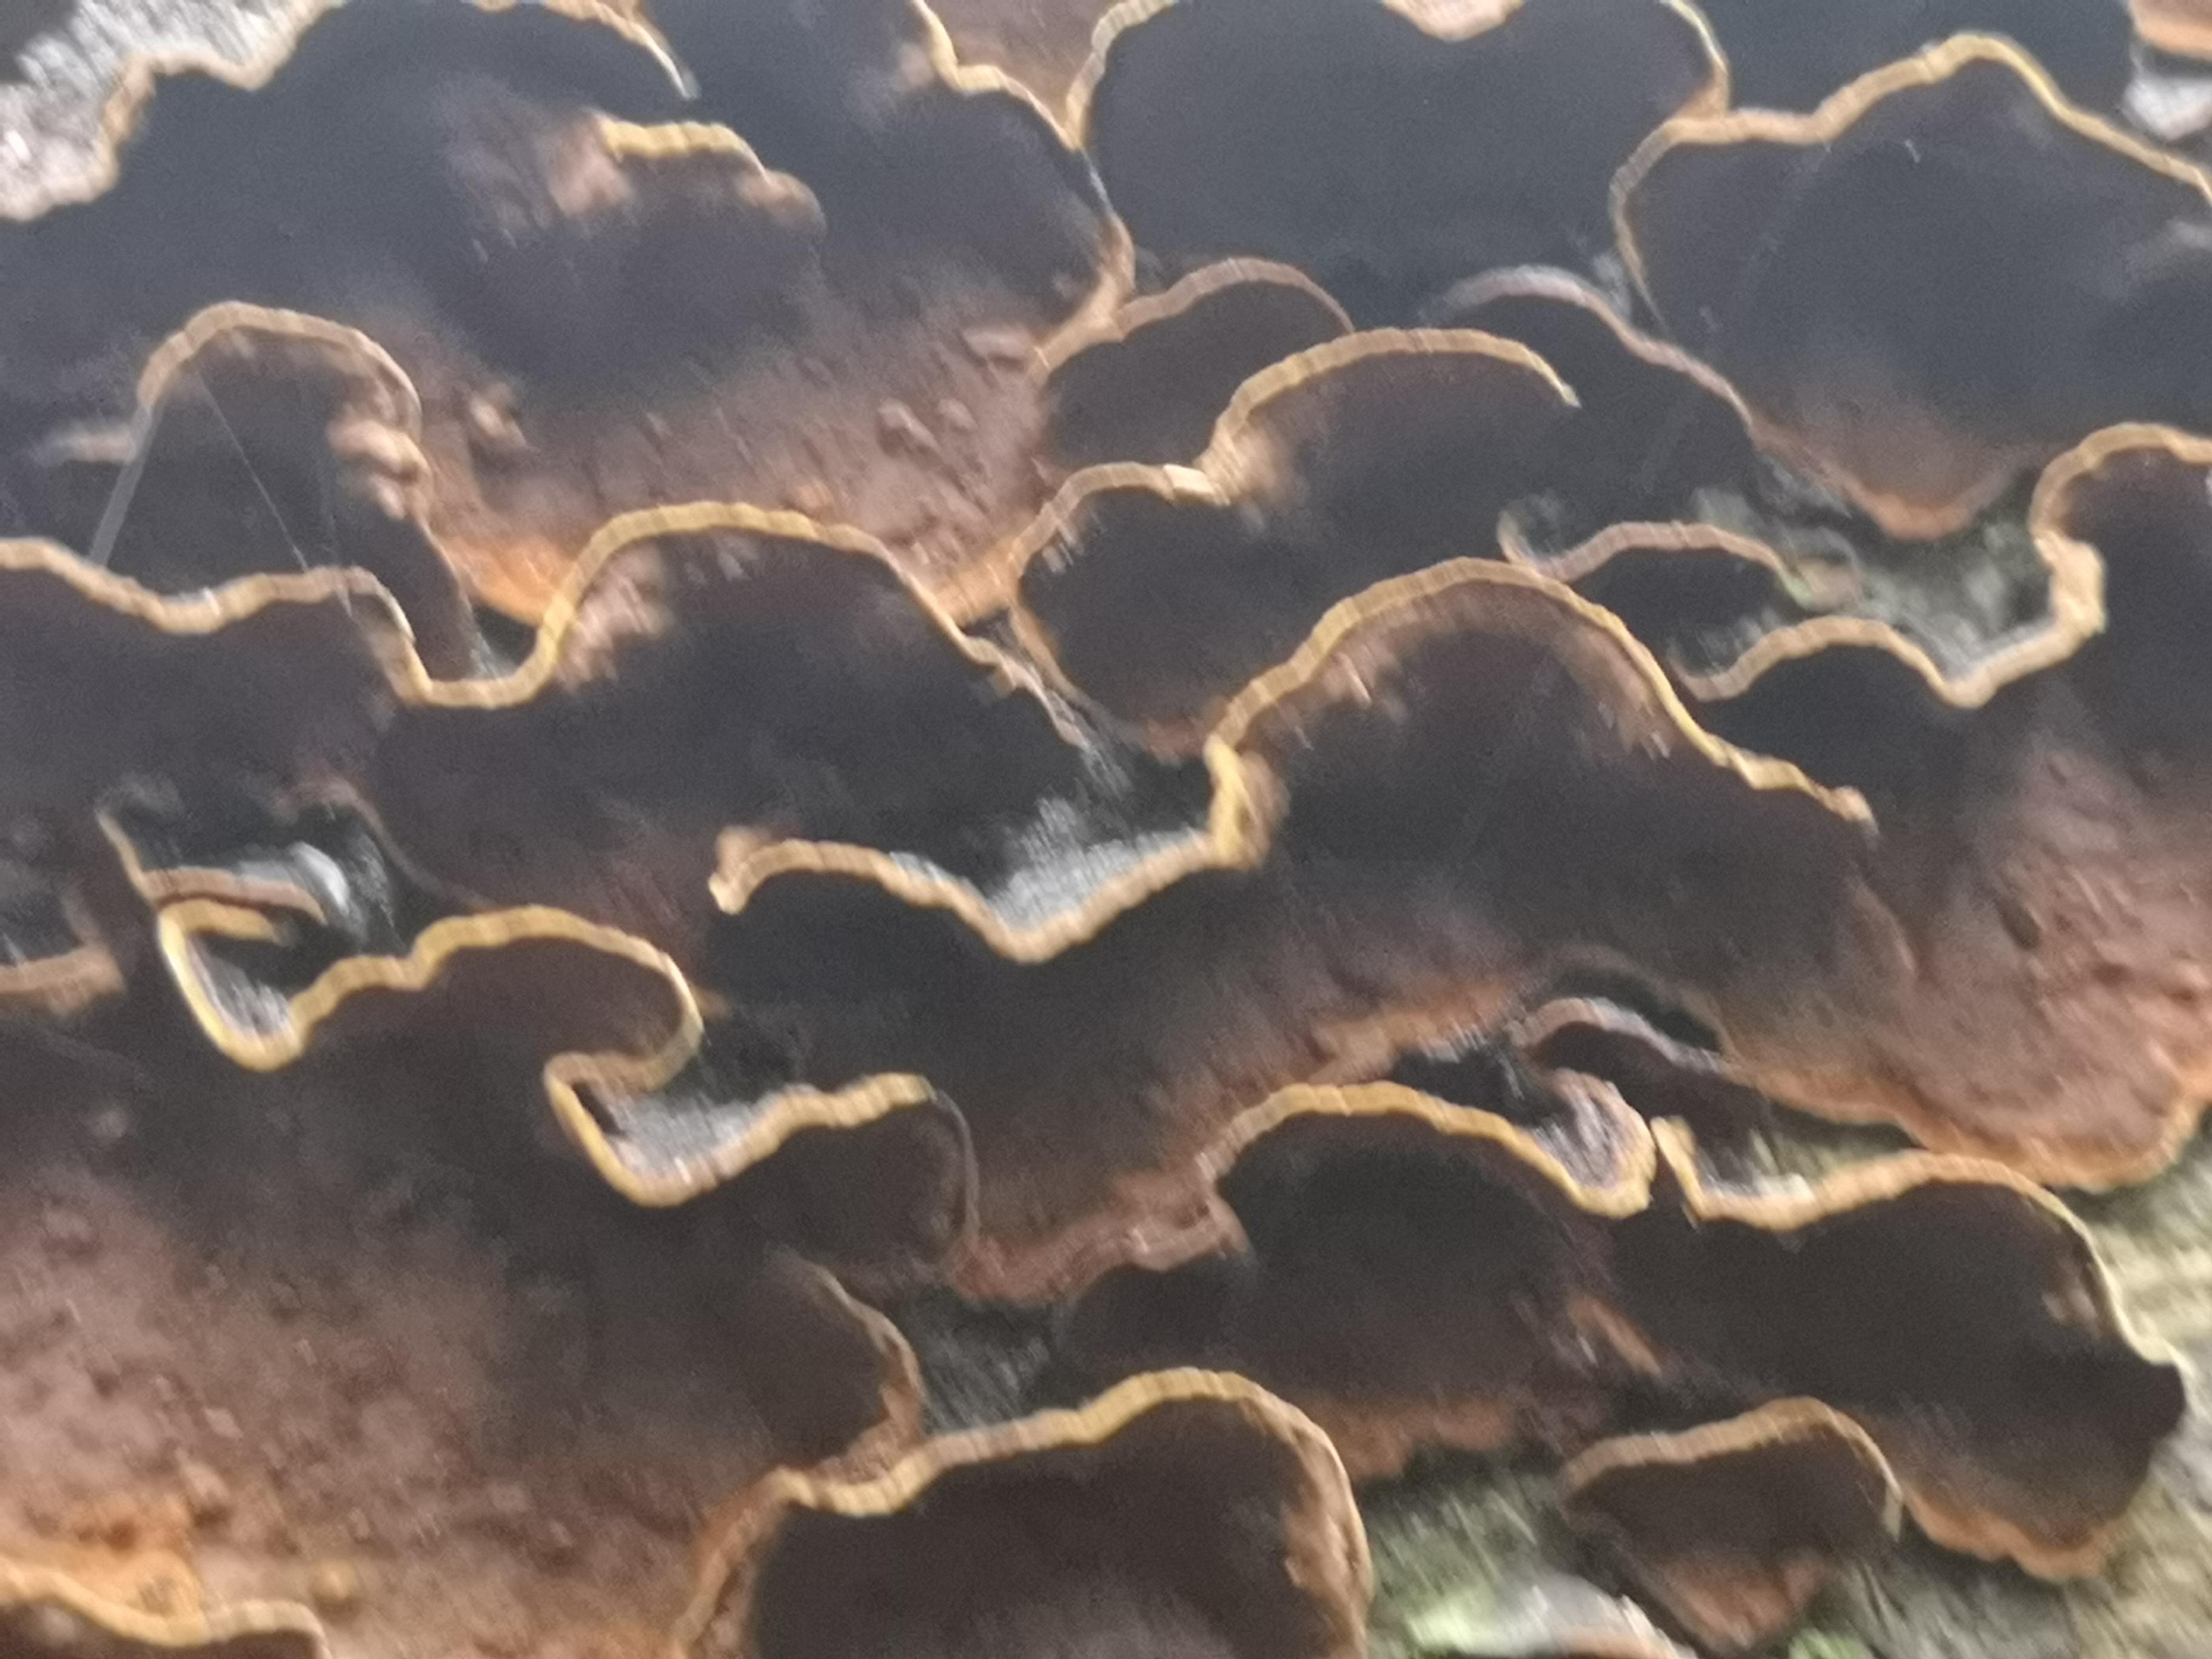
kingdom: Fungi
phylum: Basidiomycota
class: Agaricomycetes
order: Hymenochaetales
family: Hymenochaetaceae
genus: Hymenochaete
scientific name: Hymenochaete rubiginosa
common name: stiv ruslædersvamp
